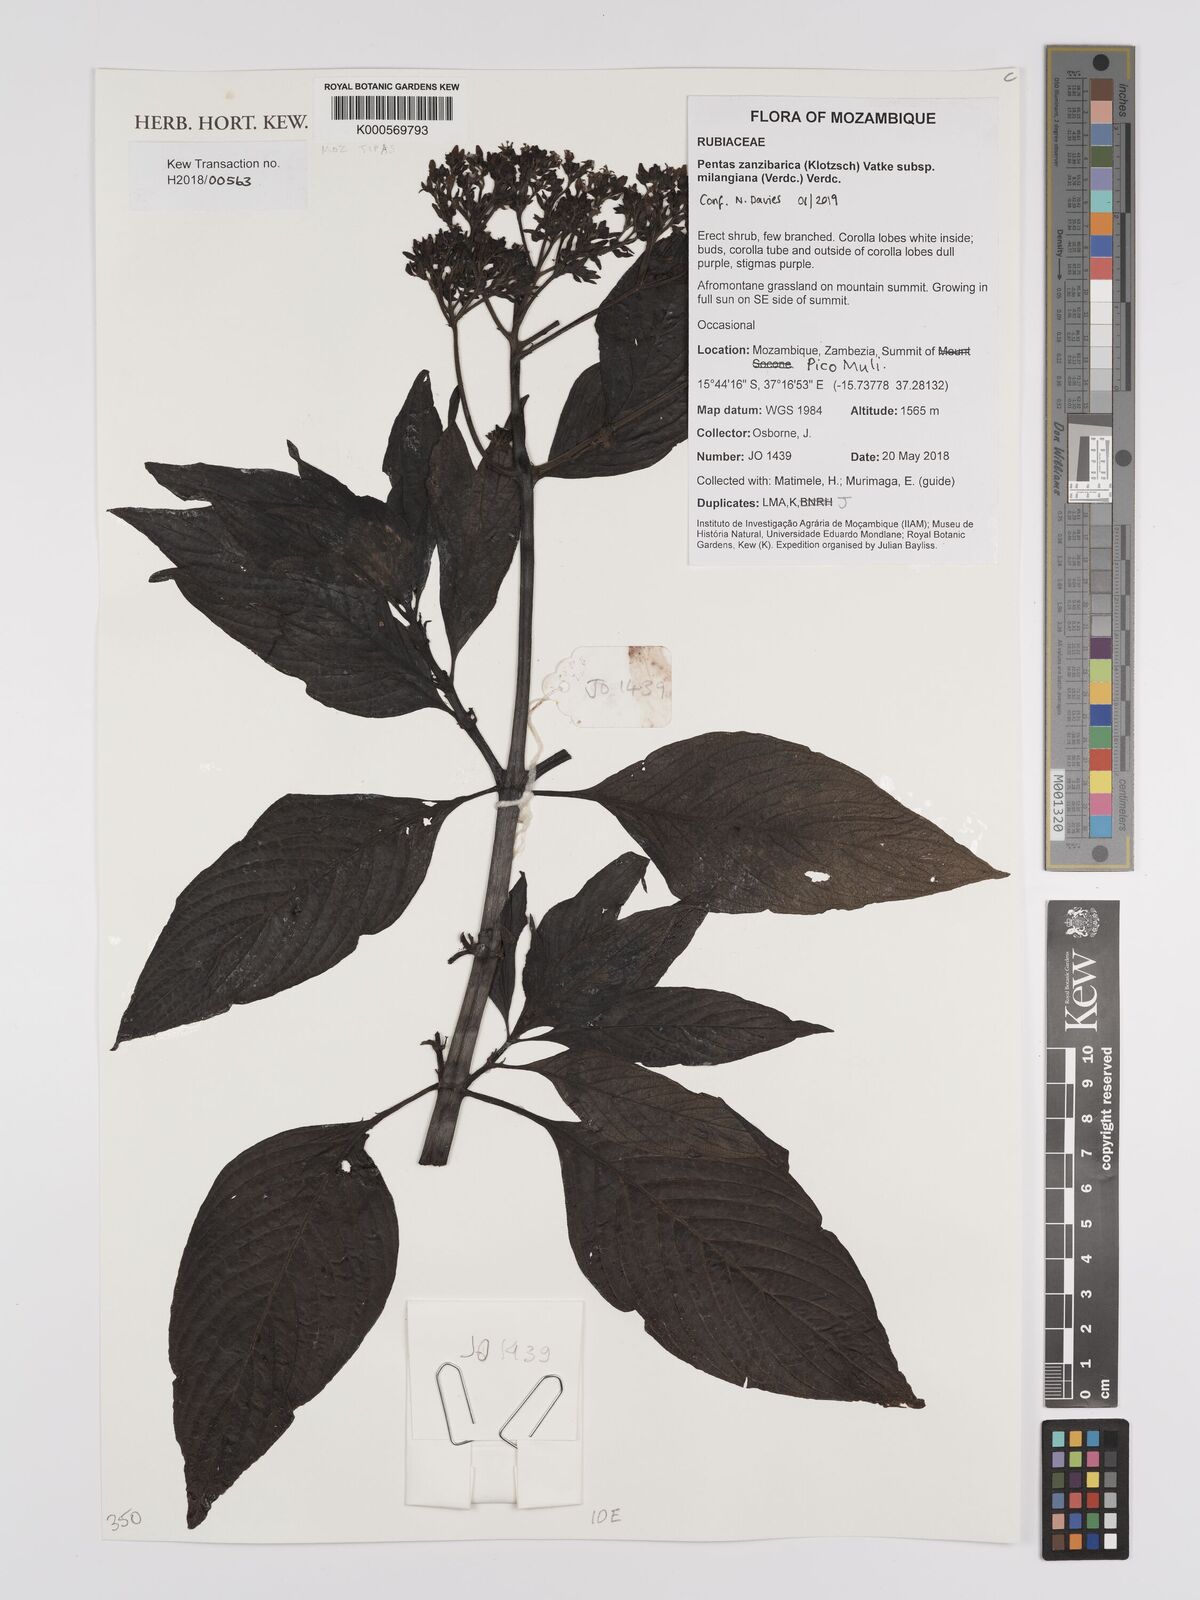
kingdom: Plantae
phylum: Tracheophyta
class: Magnoliopsida
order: Gentianales
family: Rubiaceae
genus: Pentas
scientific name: Pentas zanzibarica
